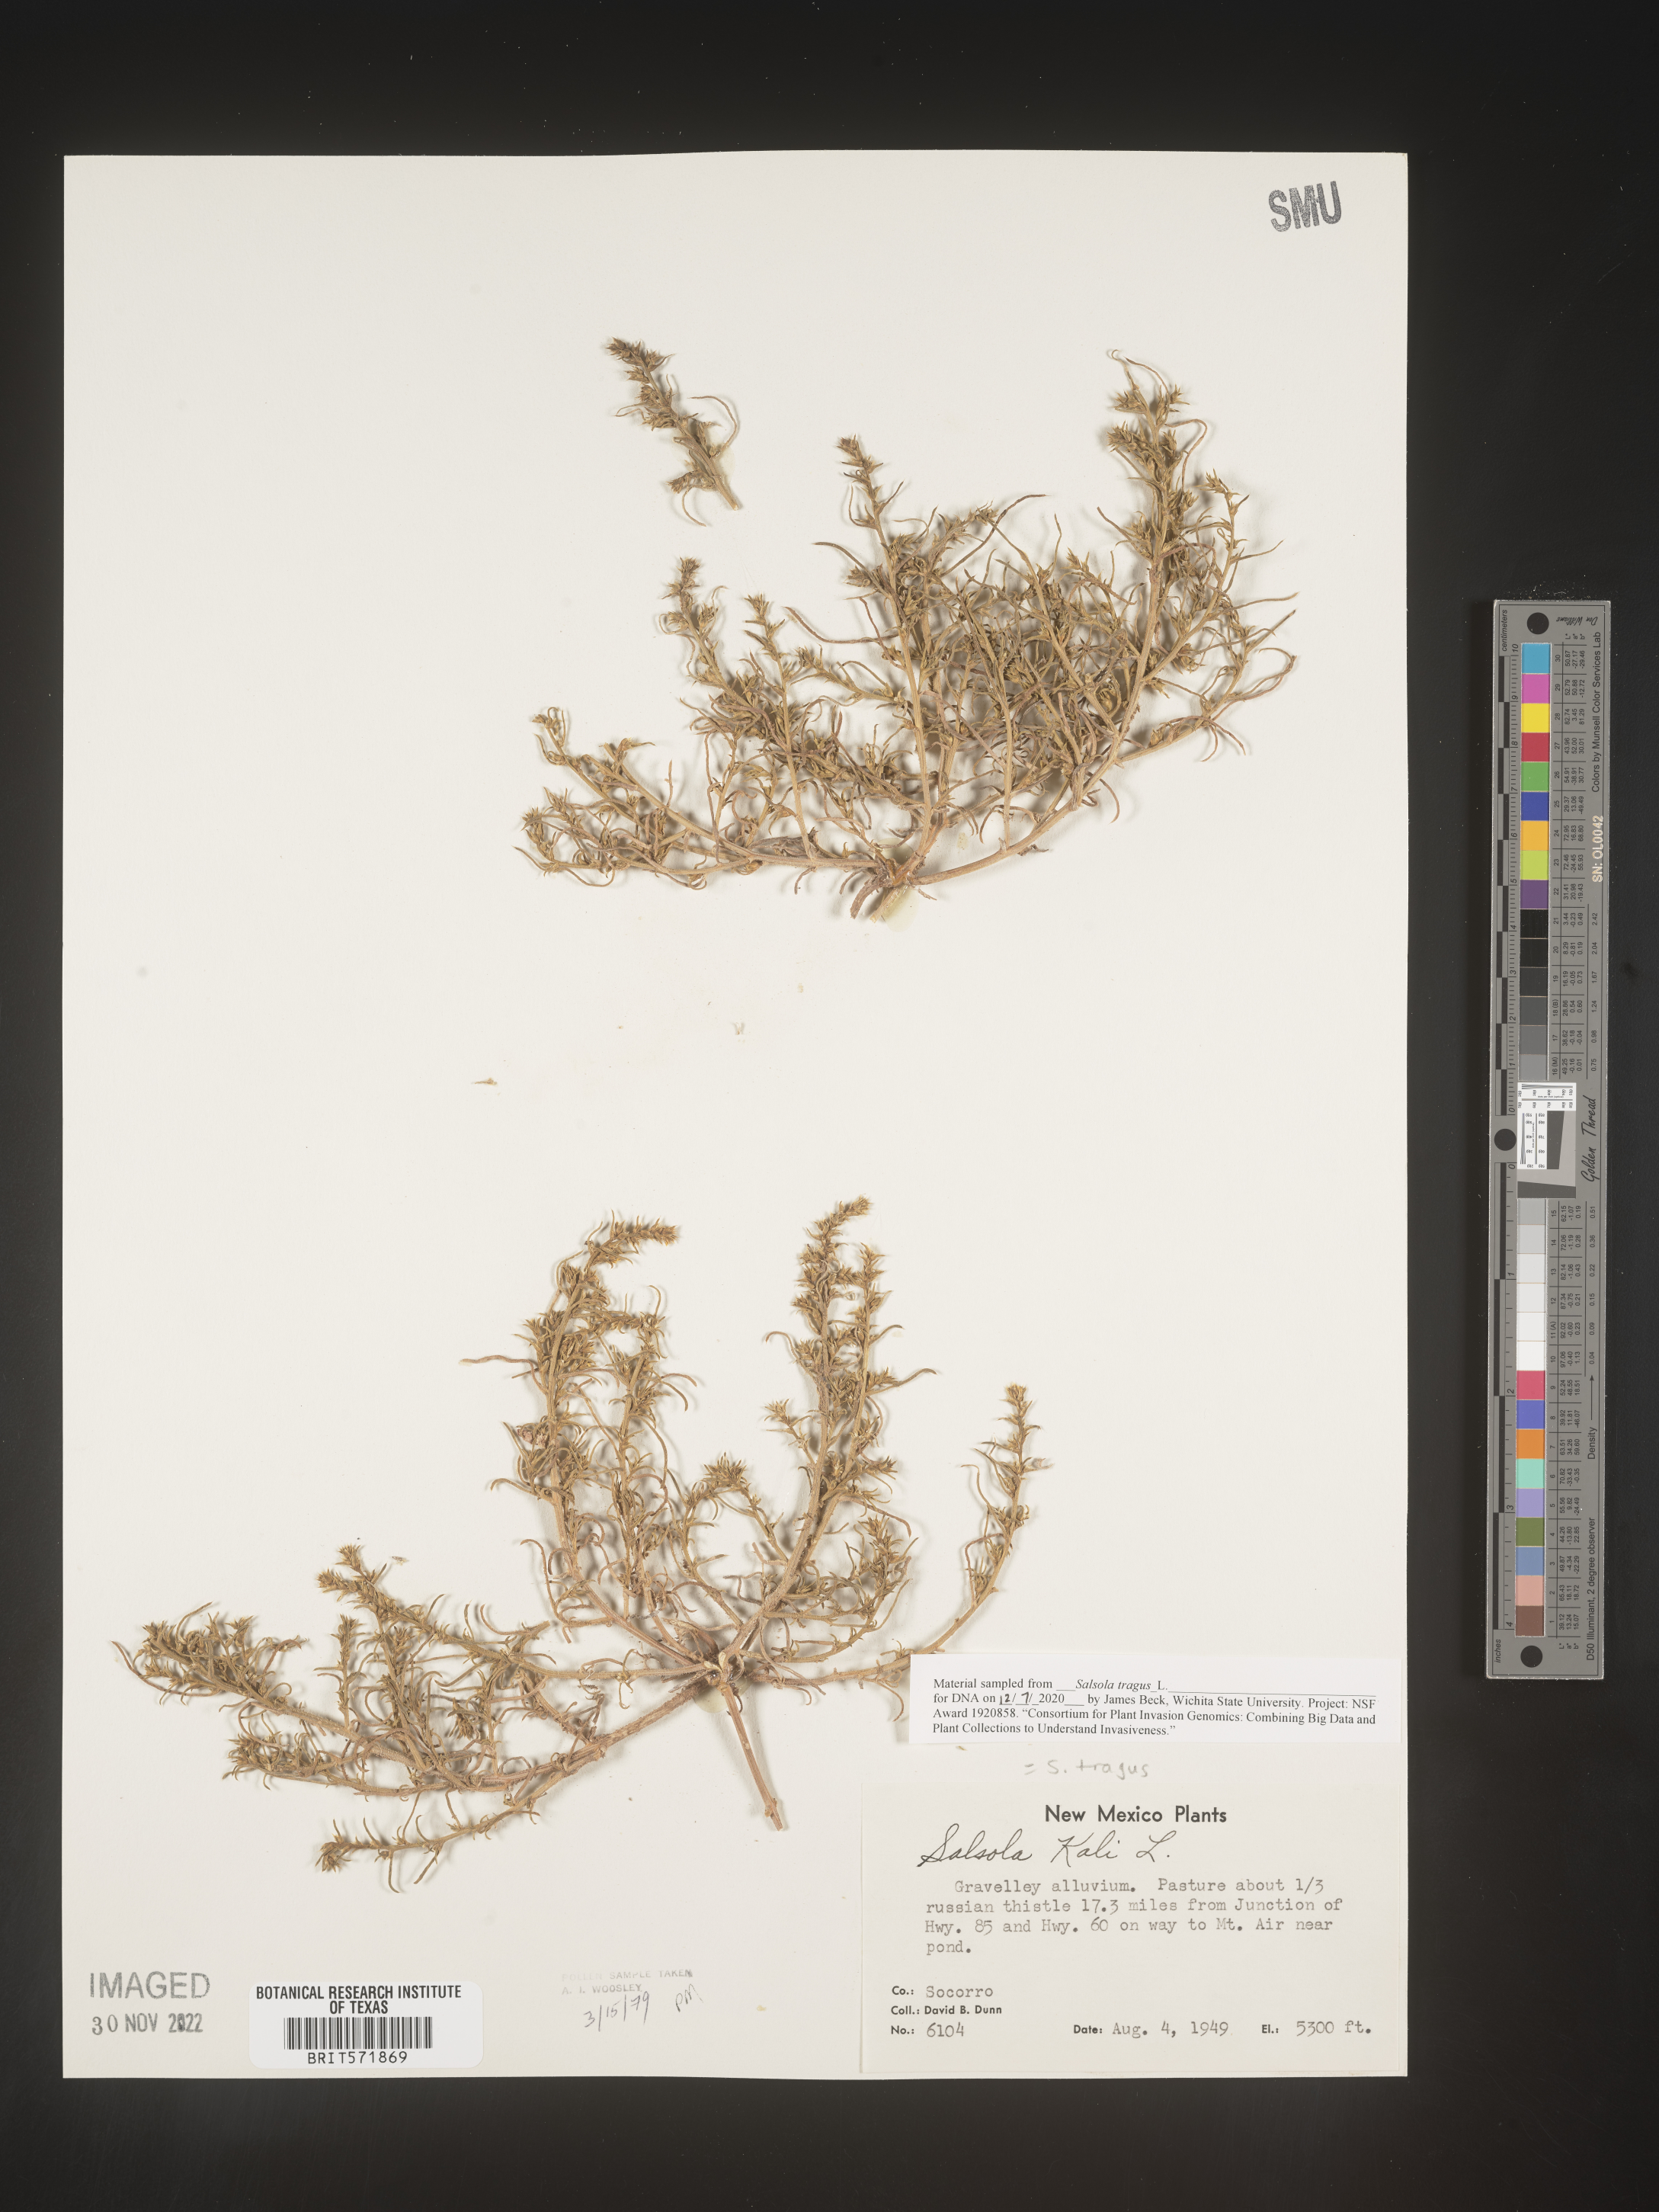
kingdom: Plantae
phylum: Tracheophyta
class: Magnoliopsida
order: Caryophyllales
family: Amaranthaceae
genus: Salsola
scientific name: Salsola tragus
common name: Prickly russian thistle
